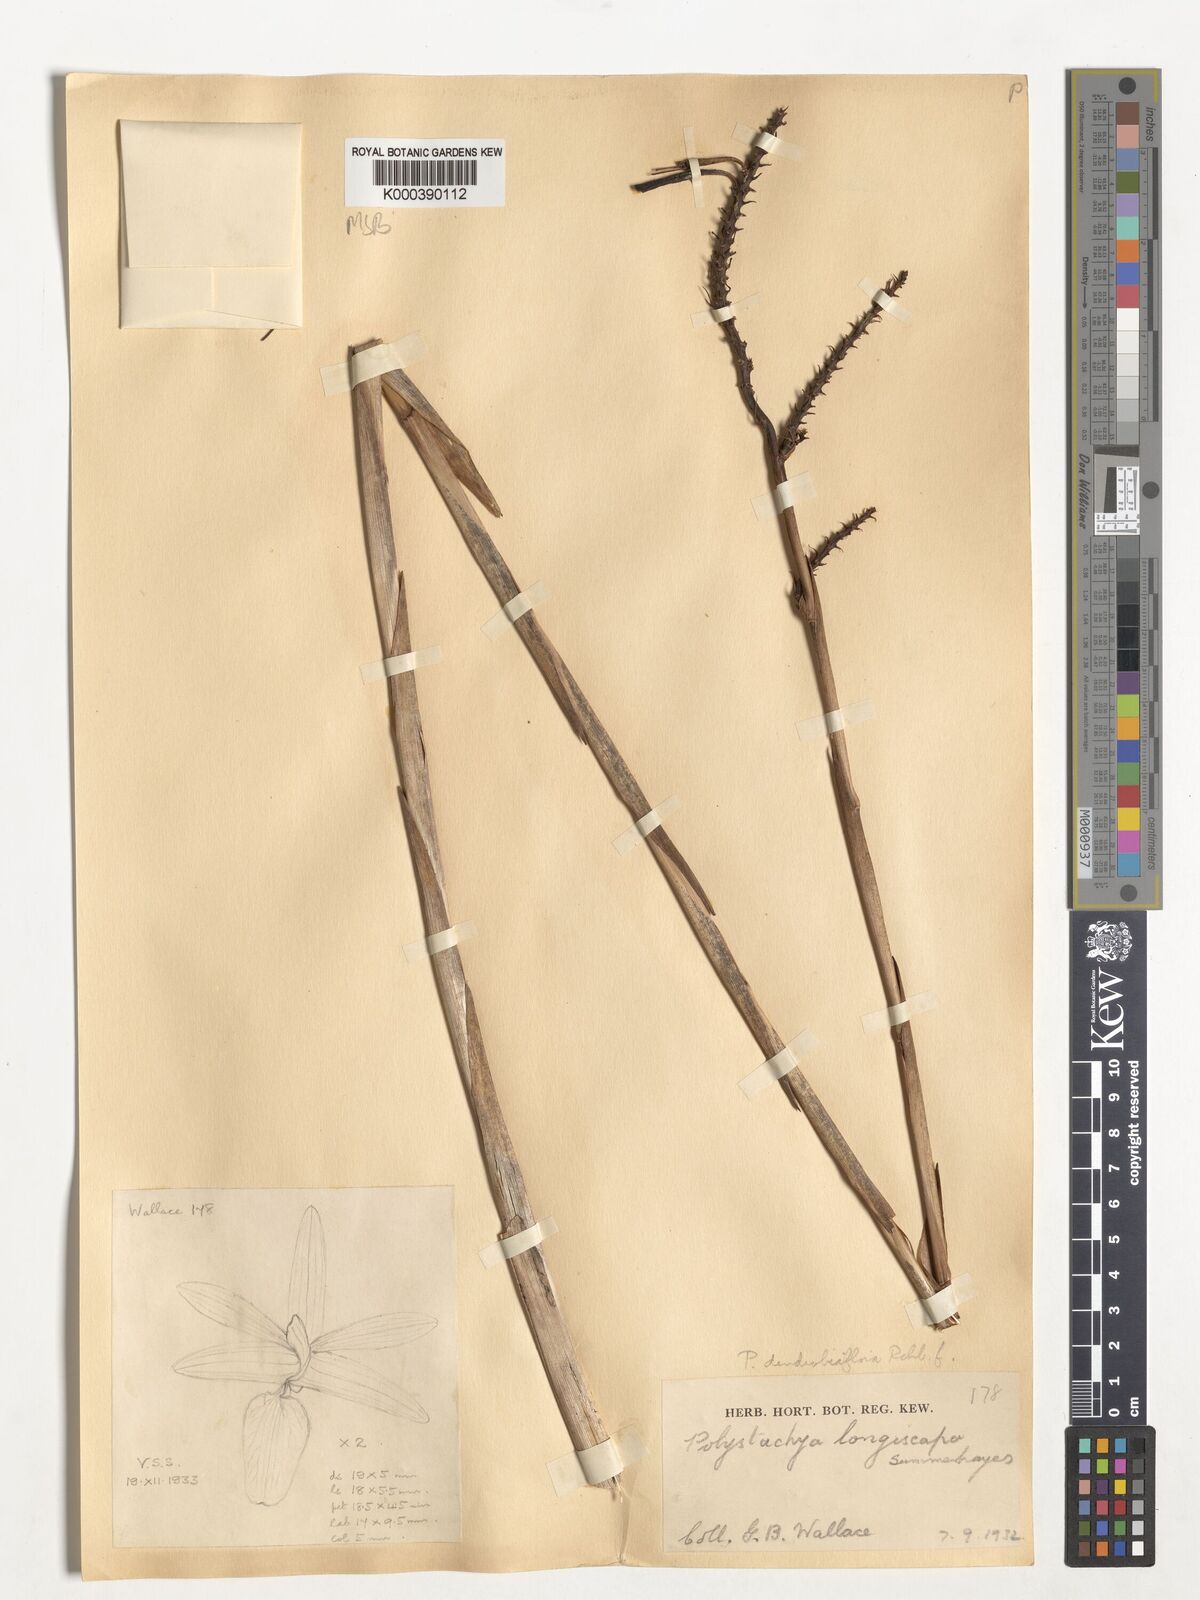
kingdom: Plantae
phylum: Tracheophyta
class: Liliopsida
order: Asparagales
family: Orchidaceae
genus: Polystachya
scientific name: Polystachya longiscapa
